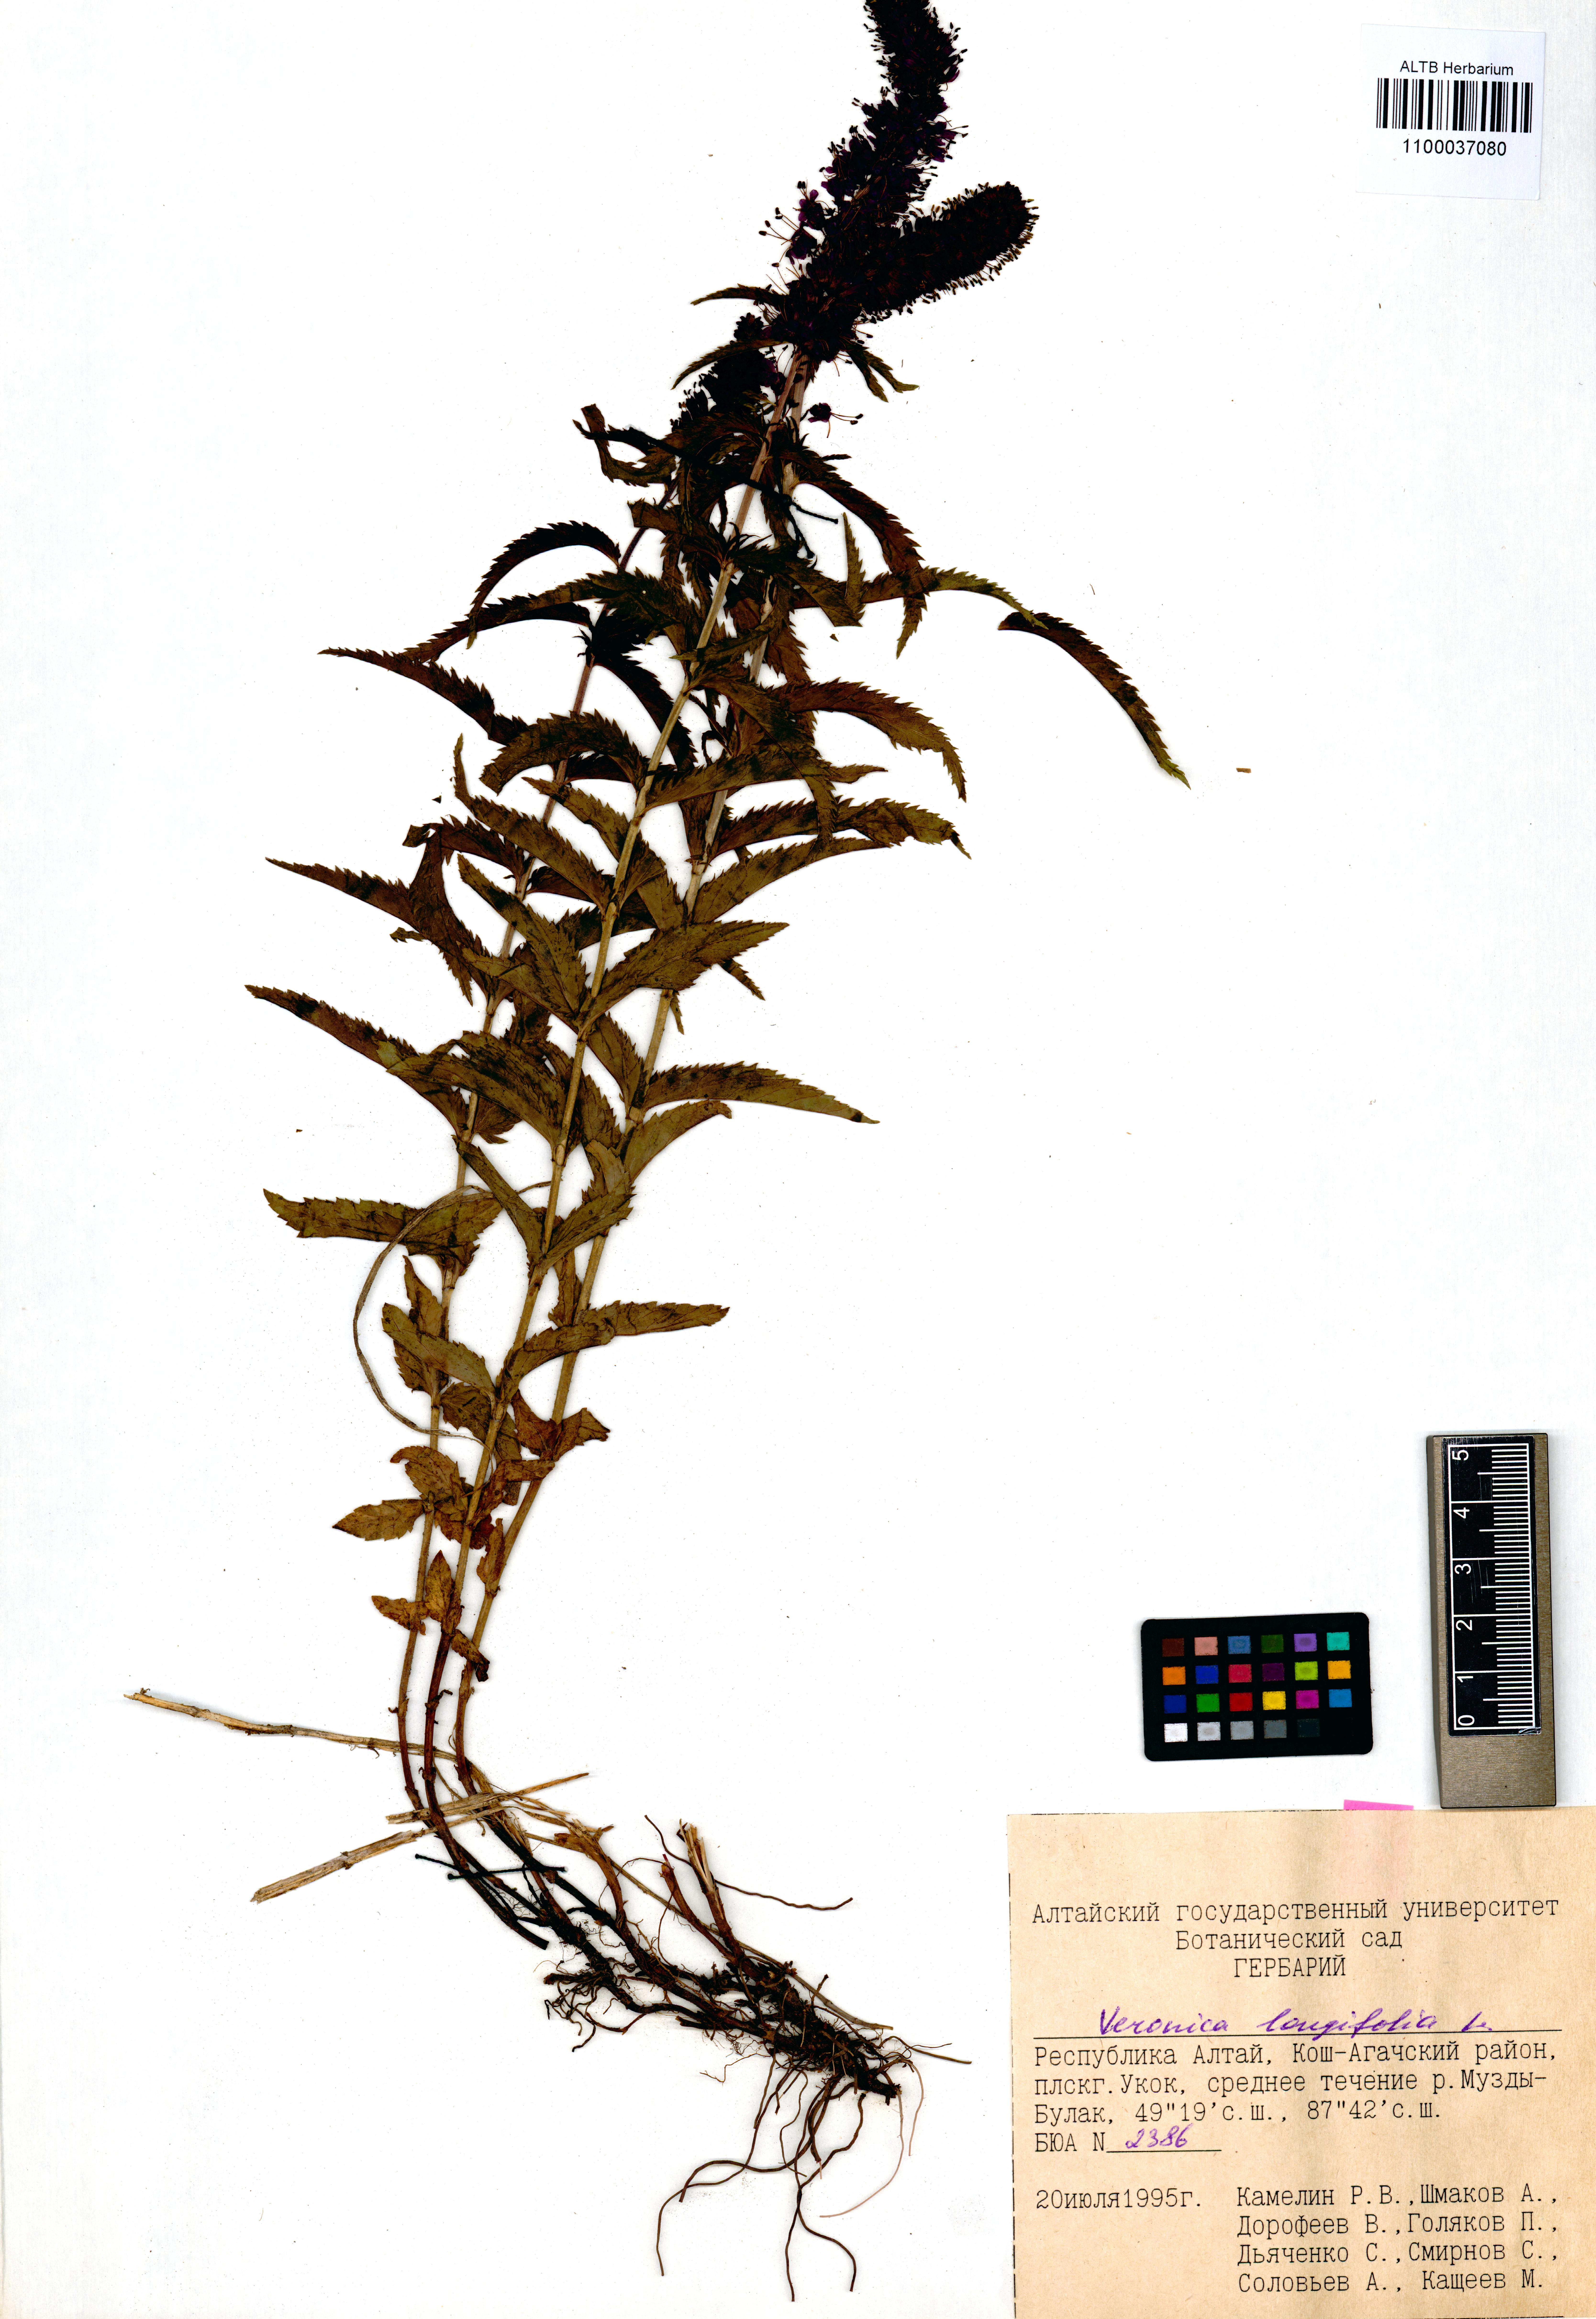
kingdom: Plantae
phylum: Tracheophyta
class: Magnoliopsida
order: Lamiales
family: Plantaginaceae
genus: Veronica
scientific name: Veronica longifolia
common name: Garden speedwell
